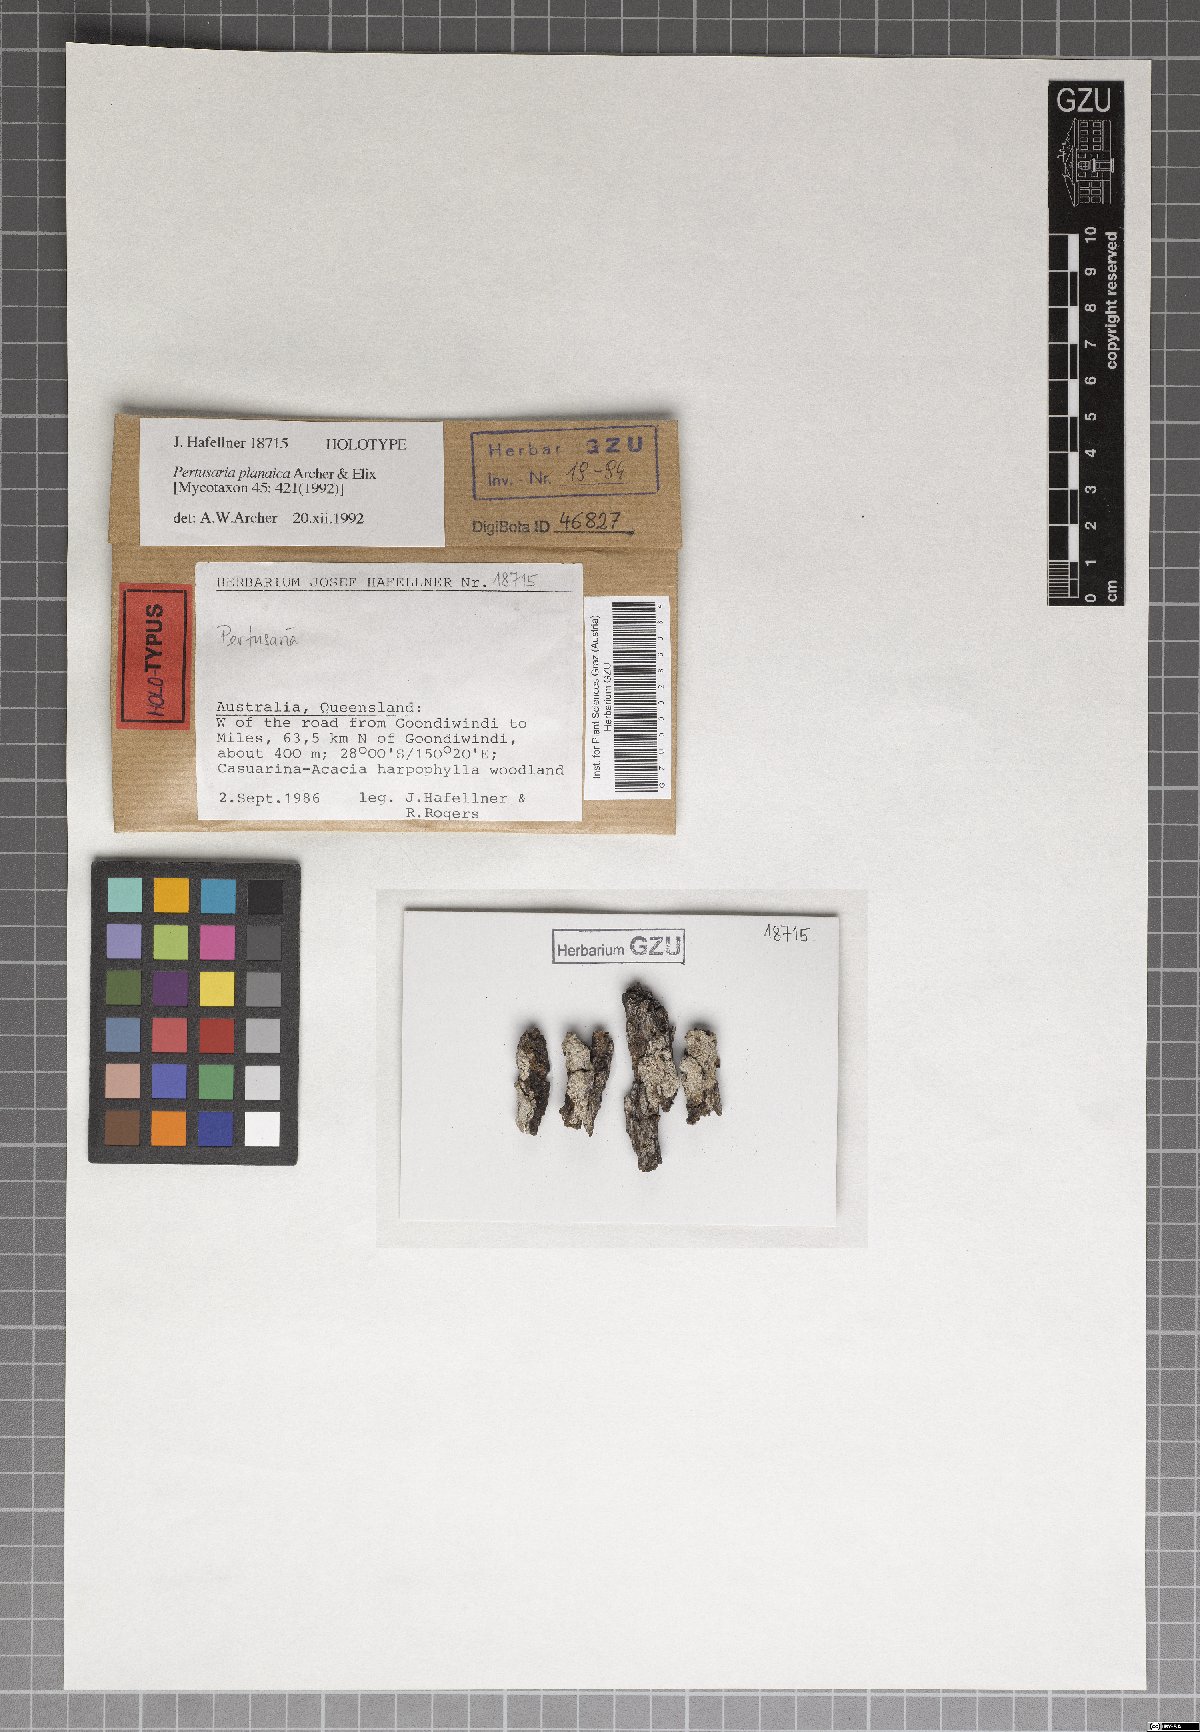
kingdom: Fungi
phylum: Ascomycota
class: Lecanoromycetes
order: Pertusariales
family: Pertusariaceae
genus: Pertusaria
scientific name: Pertusaria planaica
